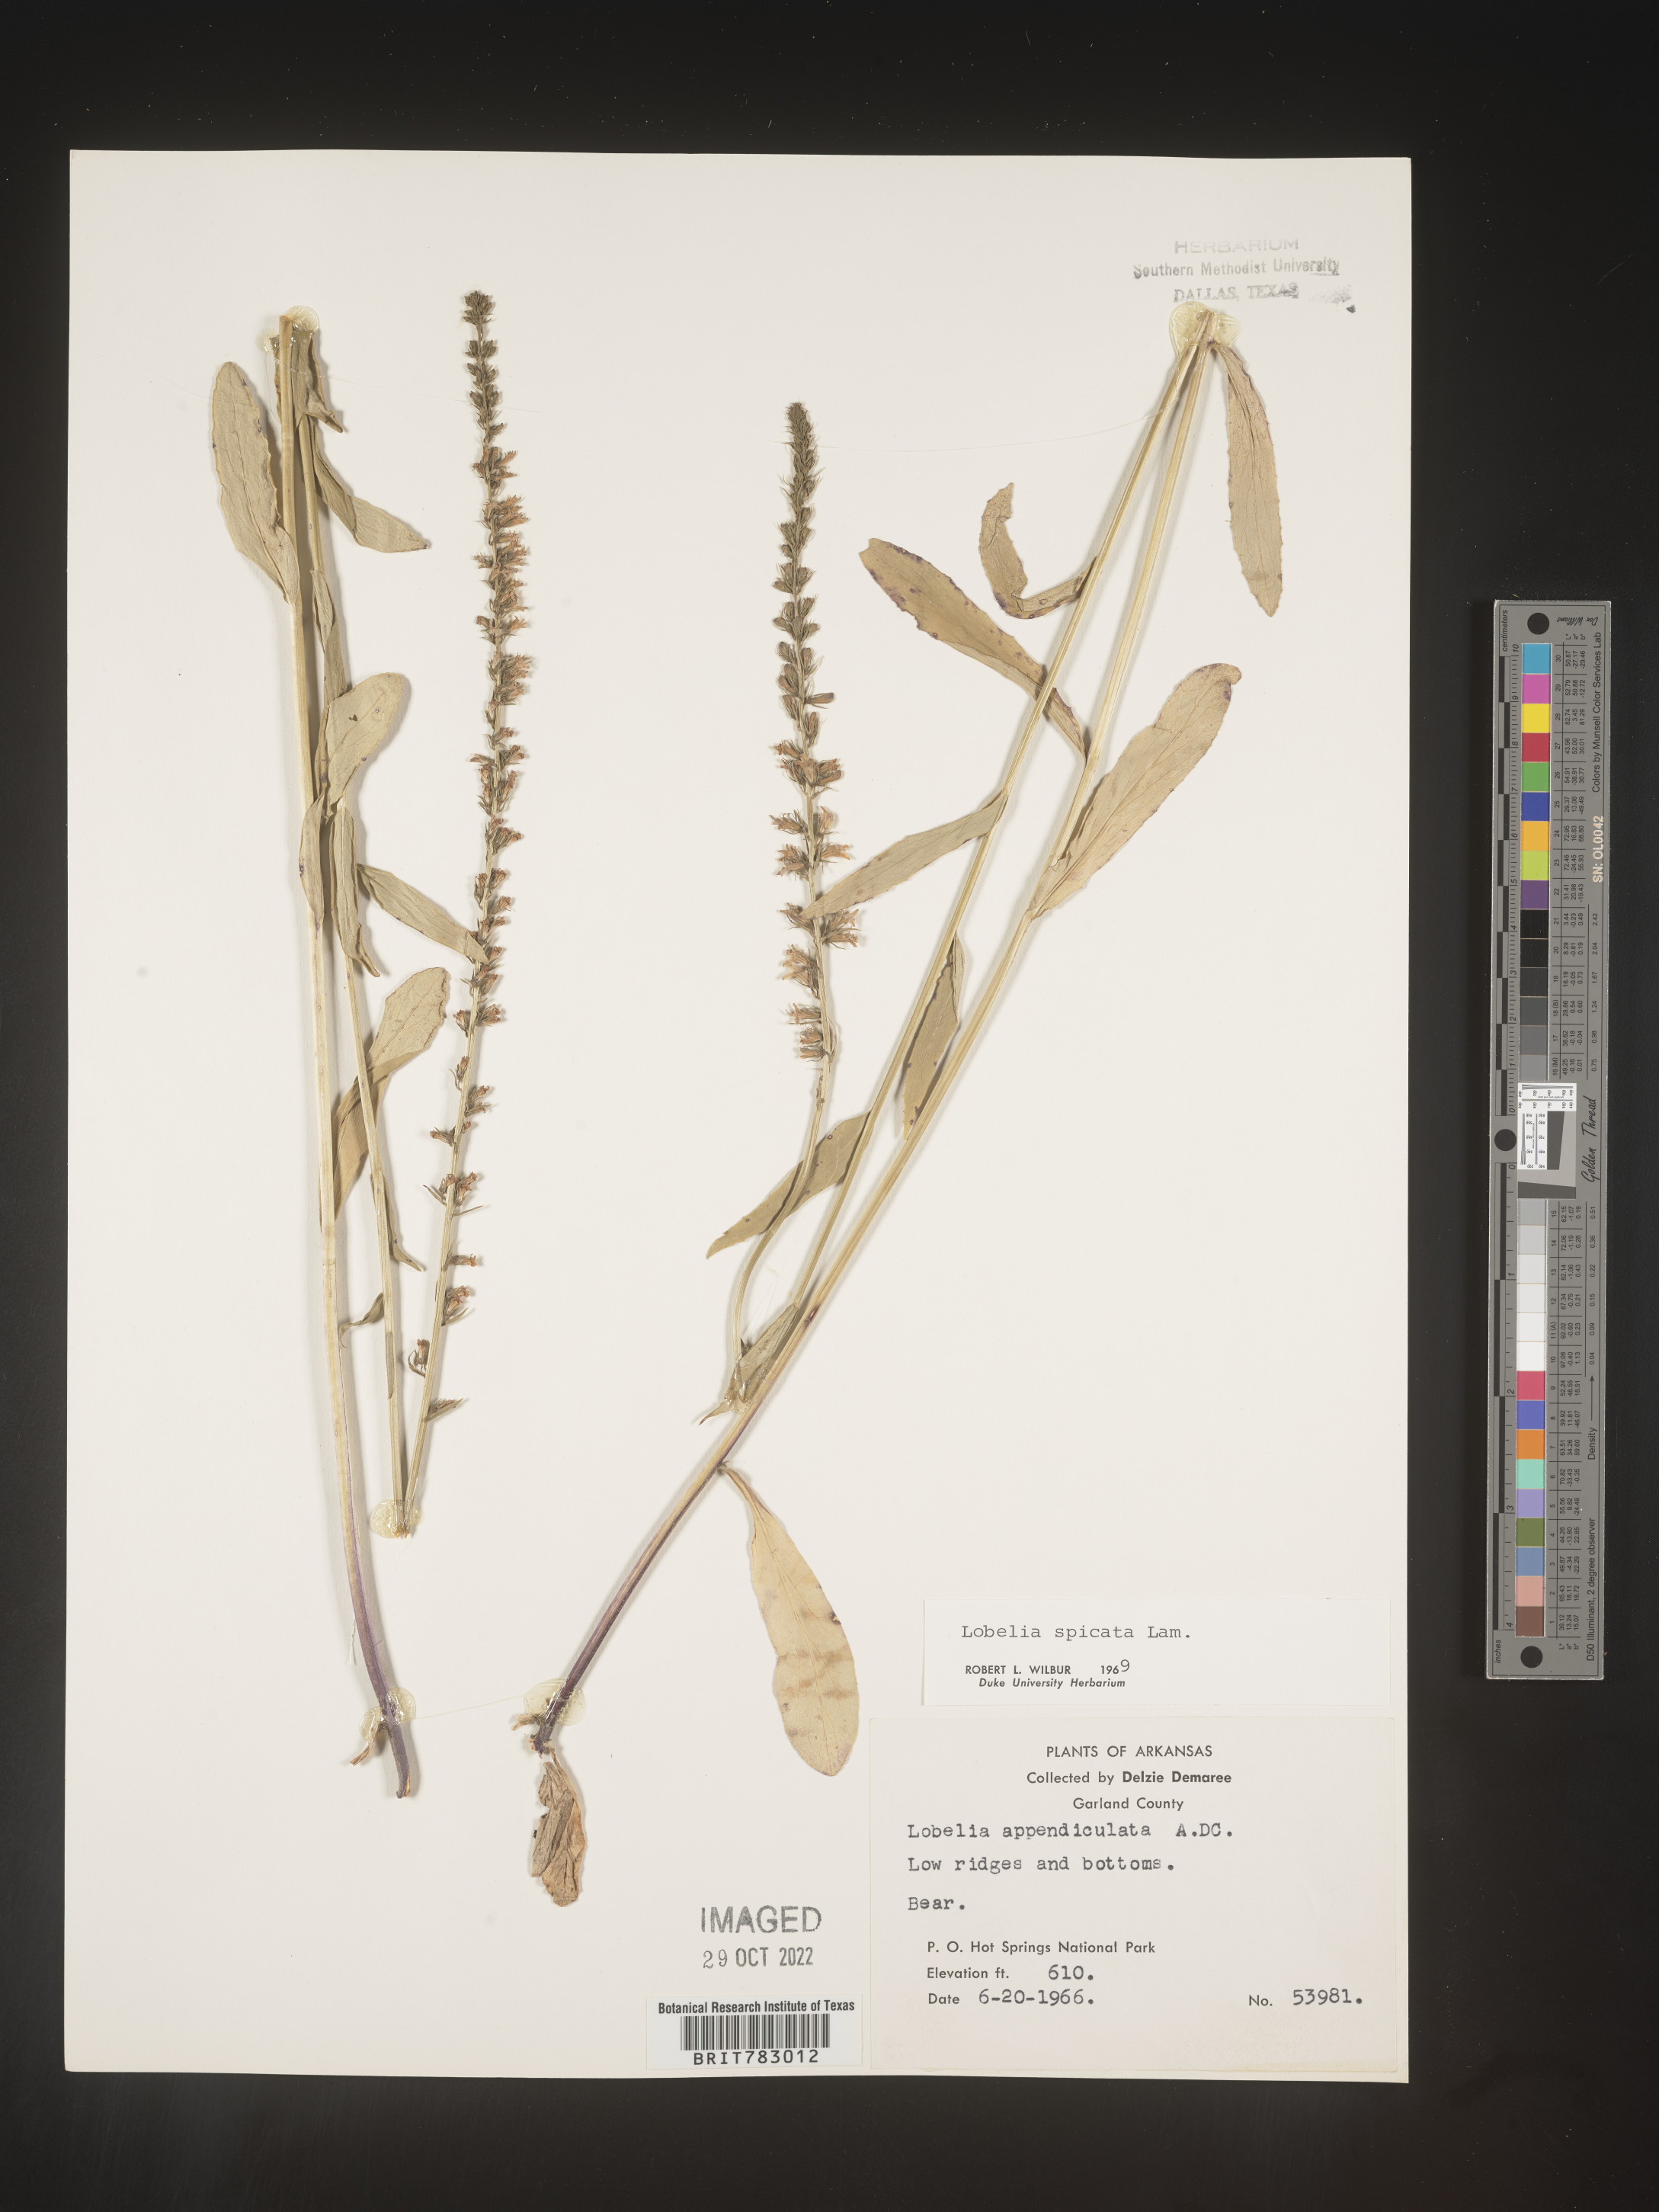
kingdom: Plantae
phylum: Tracheophyta
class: Magnoliopsida
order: Asterales
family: Campanulaceae
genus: Lobelia
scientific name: Lobelia spicata
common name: Pale-spike lobelia
